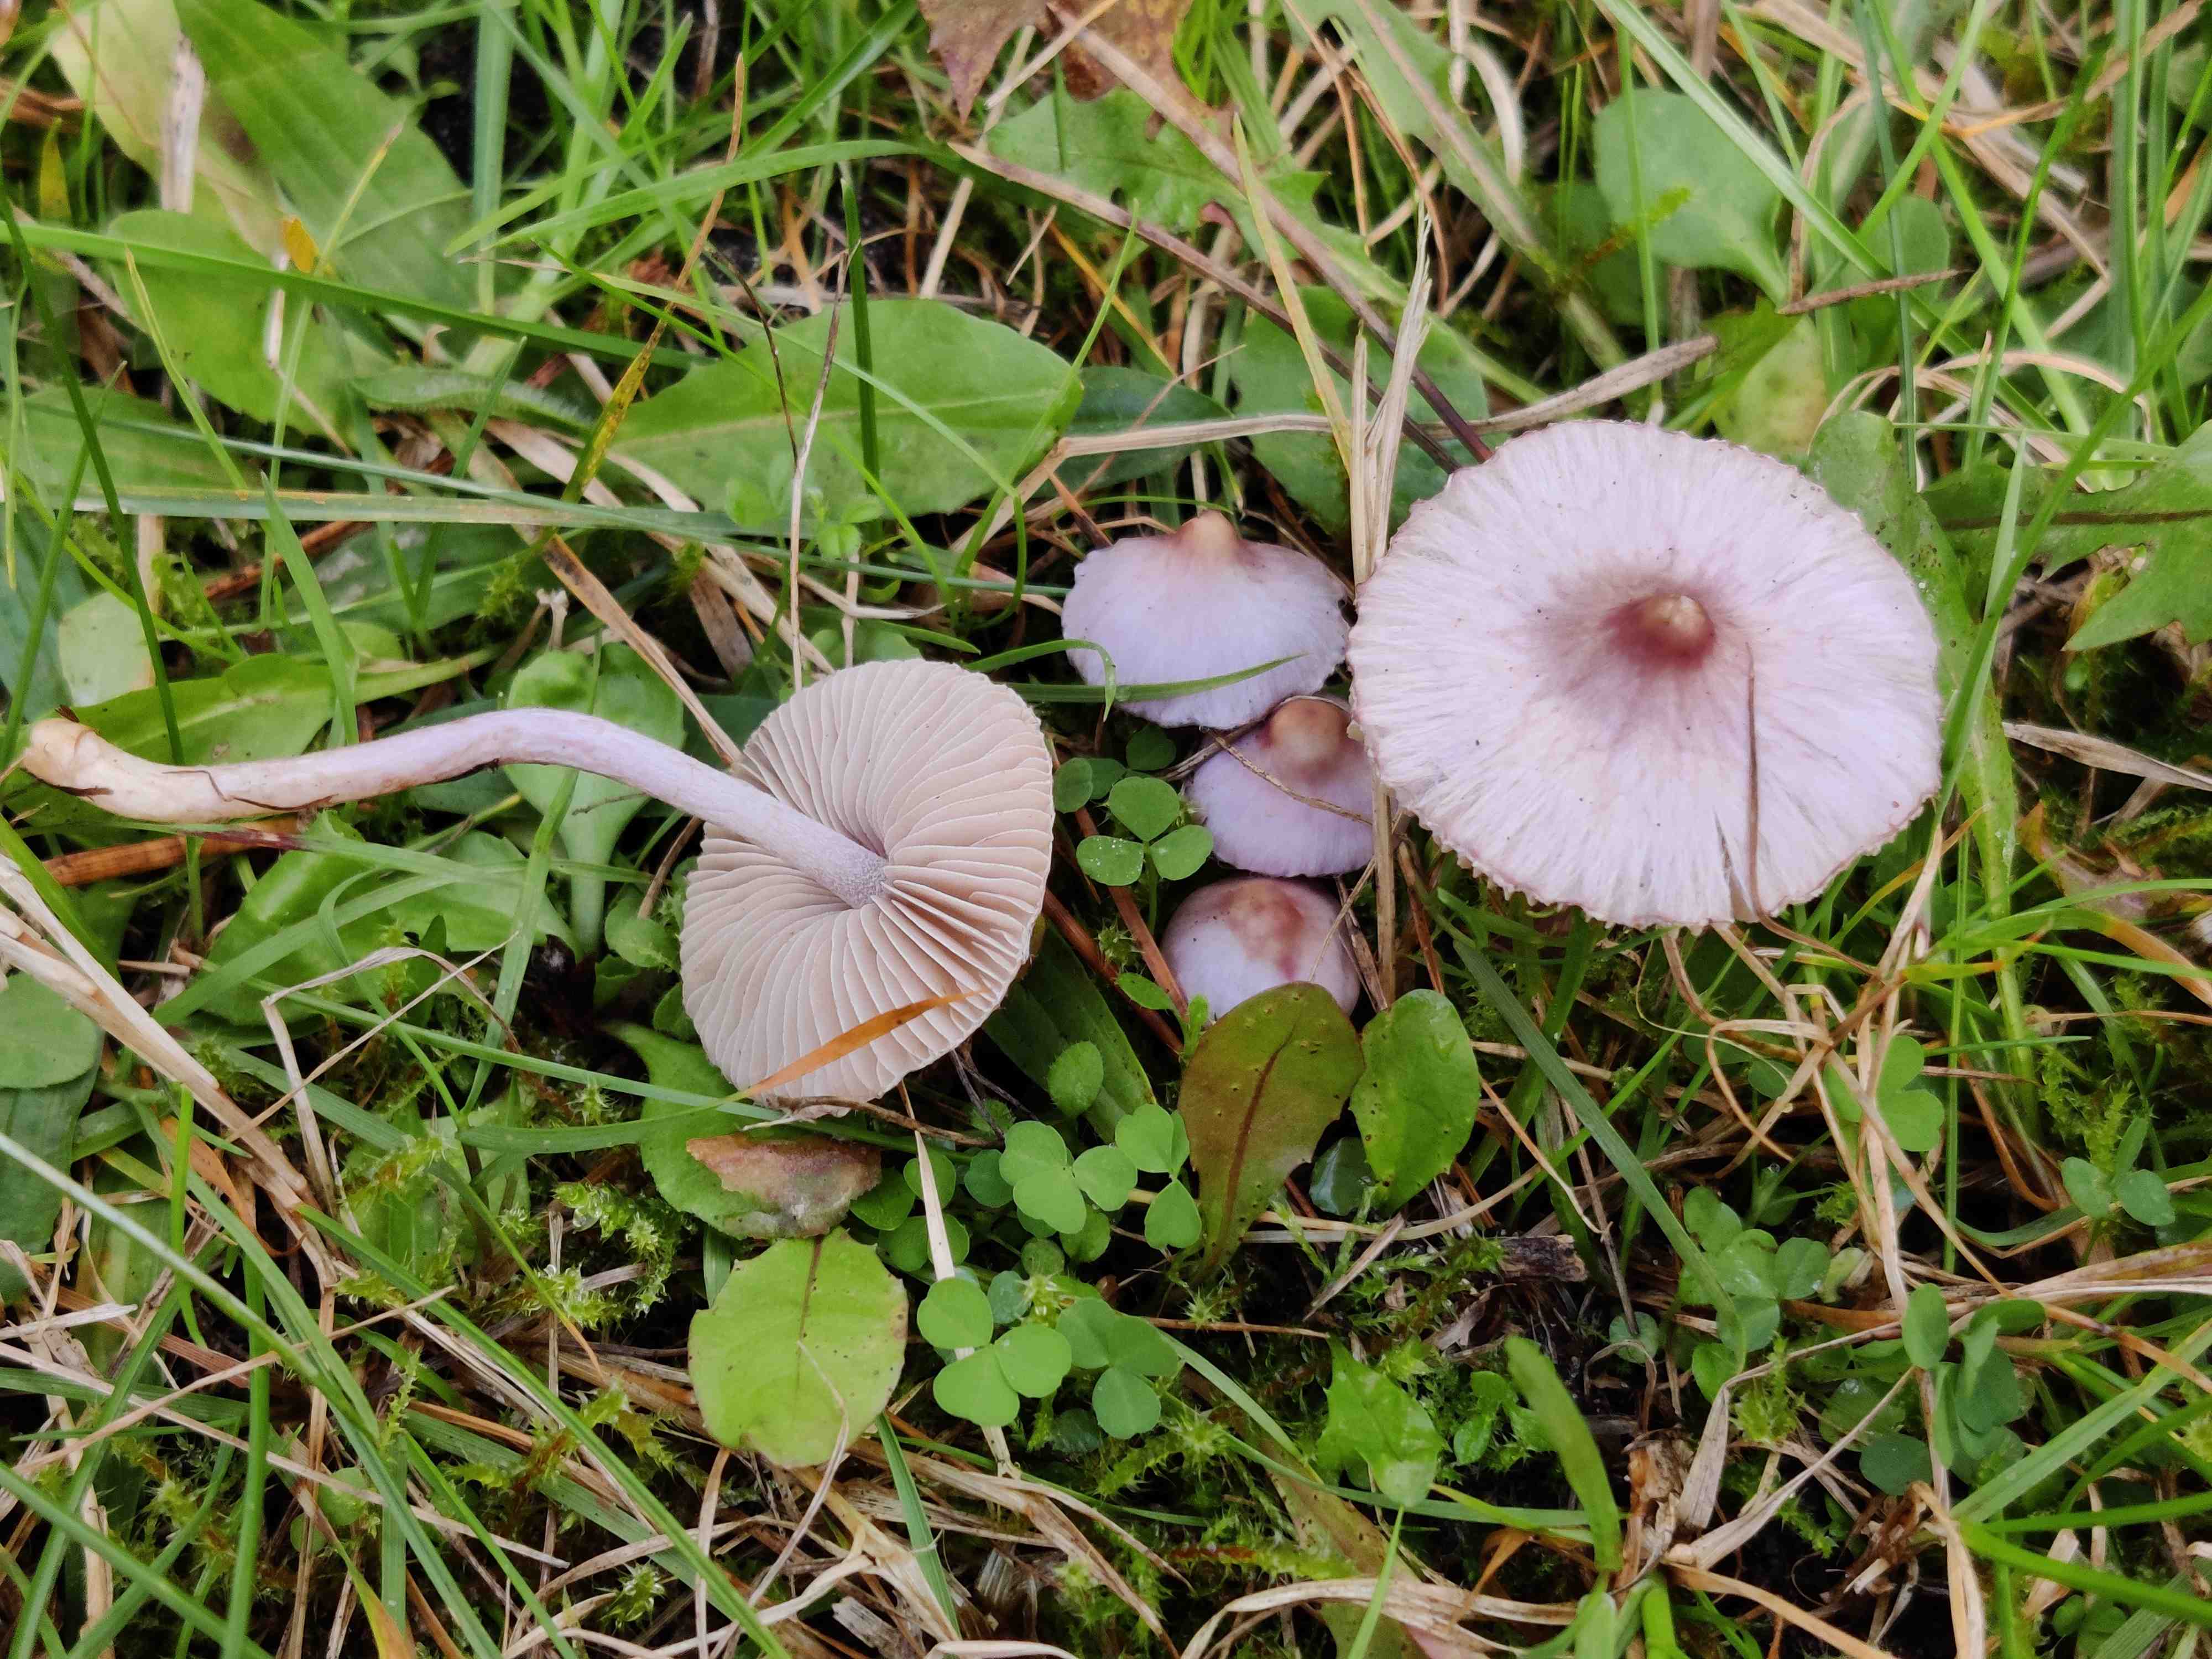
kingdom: Fungi
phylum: Basidiomycota
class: Agaricomycetes
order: Agaricales
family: Inocybaceae
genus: Inocybe
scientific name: Inocybe geophylla
